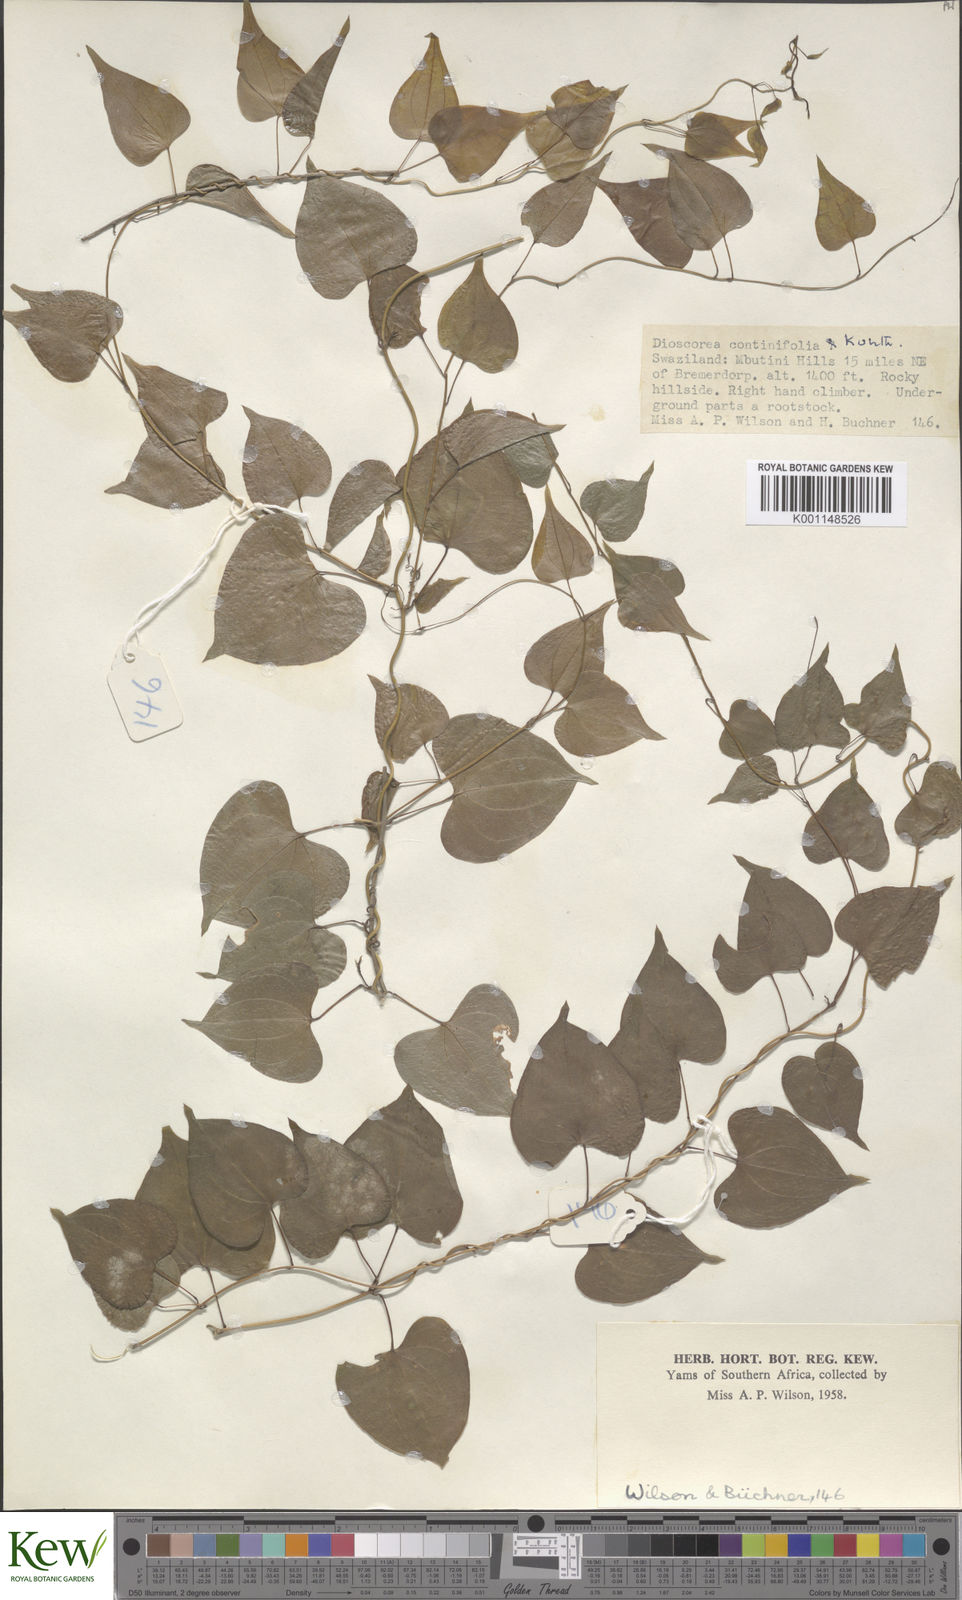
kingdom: Plantae
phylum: Tracheophyta
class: Liliopsida
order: Dioscoreales
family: Dioscoreaceae
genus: Dioscorea
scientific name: Dioscorea cotinifolia
